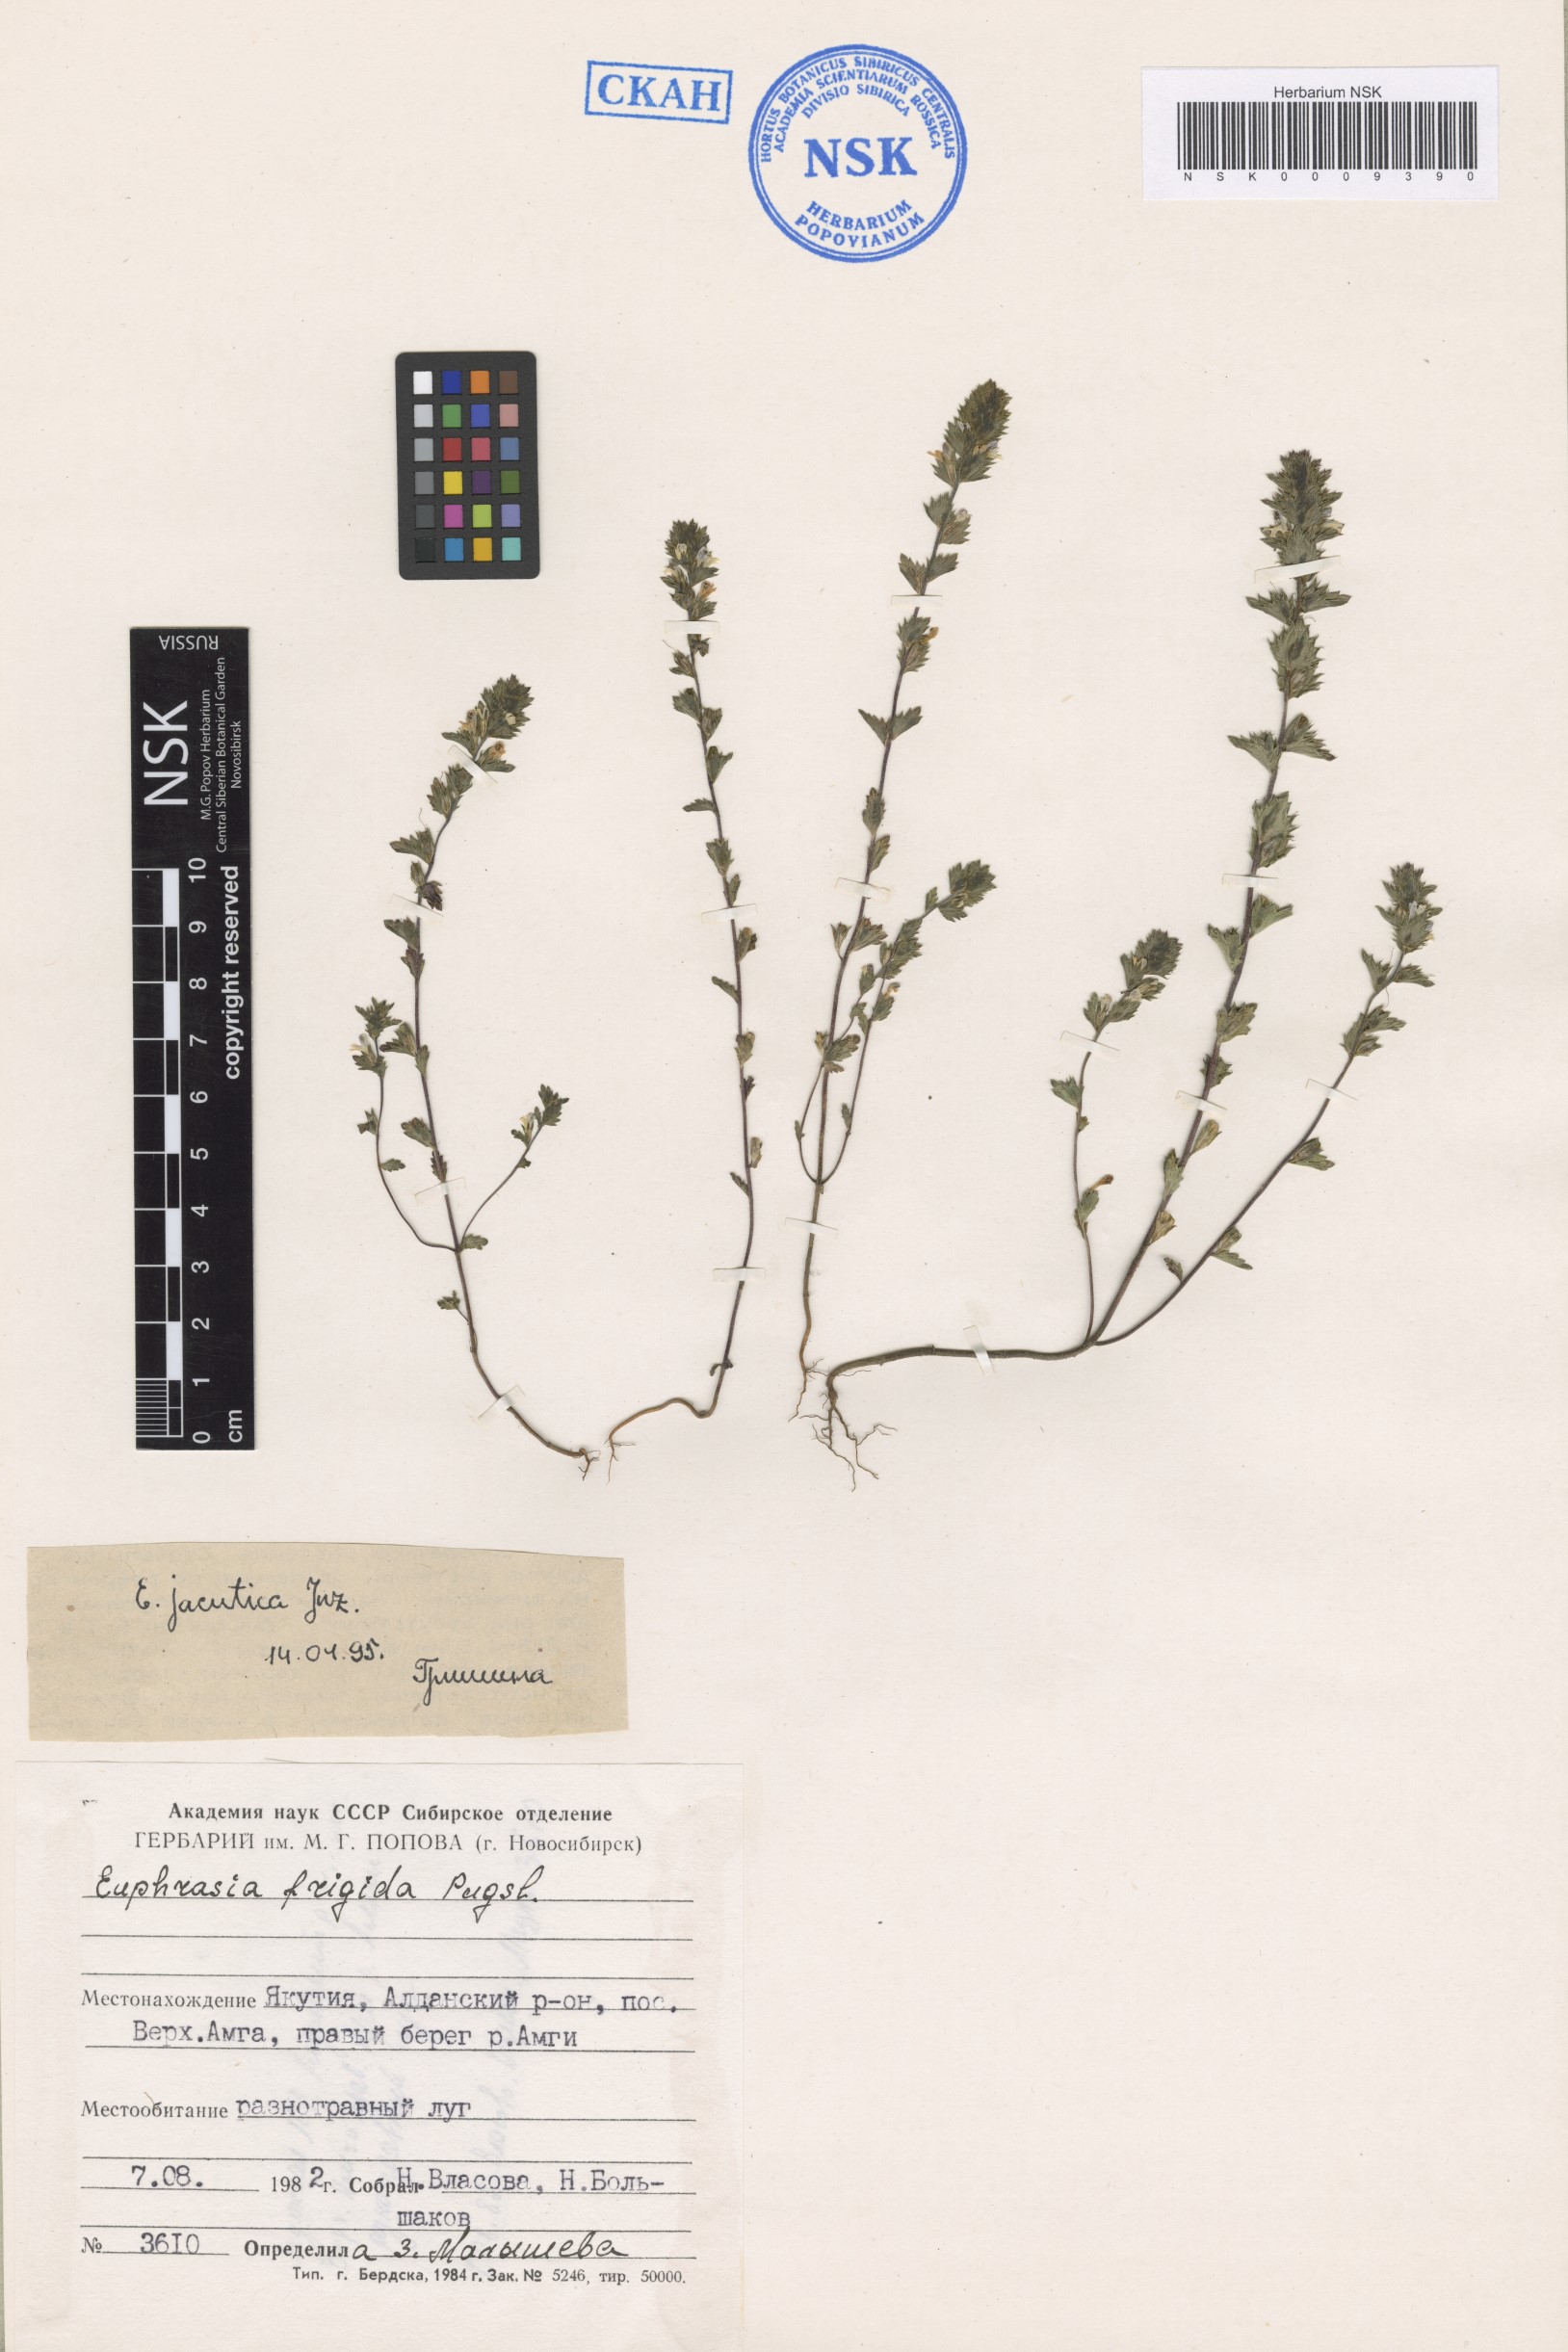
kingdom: Plantae
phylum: Tracheophyta
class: Magnoliopsida
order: Lamiales
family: Orobanchaceae
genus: Euphrasia
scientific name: Euphrasia jacutica
